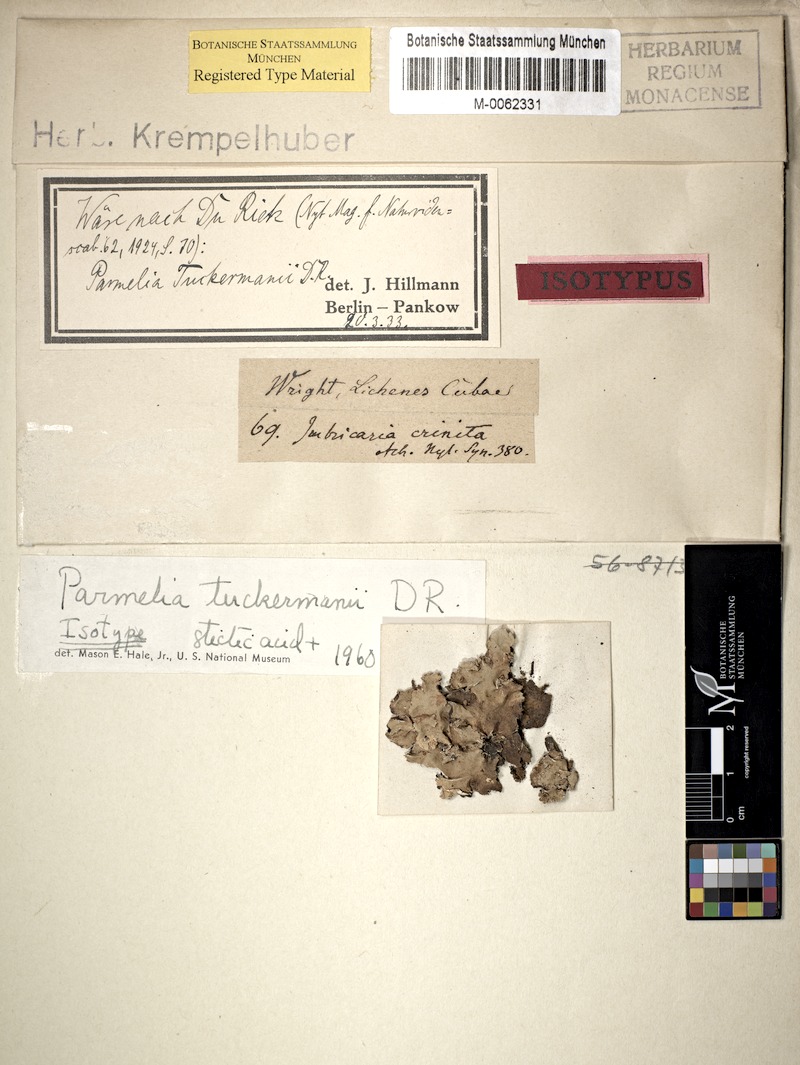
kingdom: Fungi
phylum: Ascomycota
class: Lecanoromycetes
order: Lecanorales
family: Parmeliaceae
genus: Parmotrema
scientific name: Parmotrema crinitum
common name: Salted ruffle lichen
